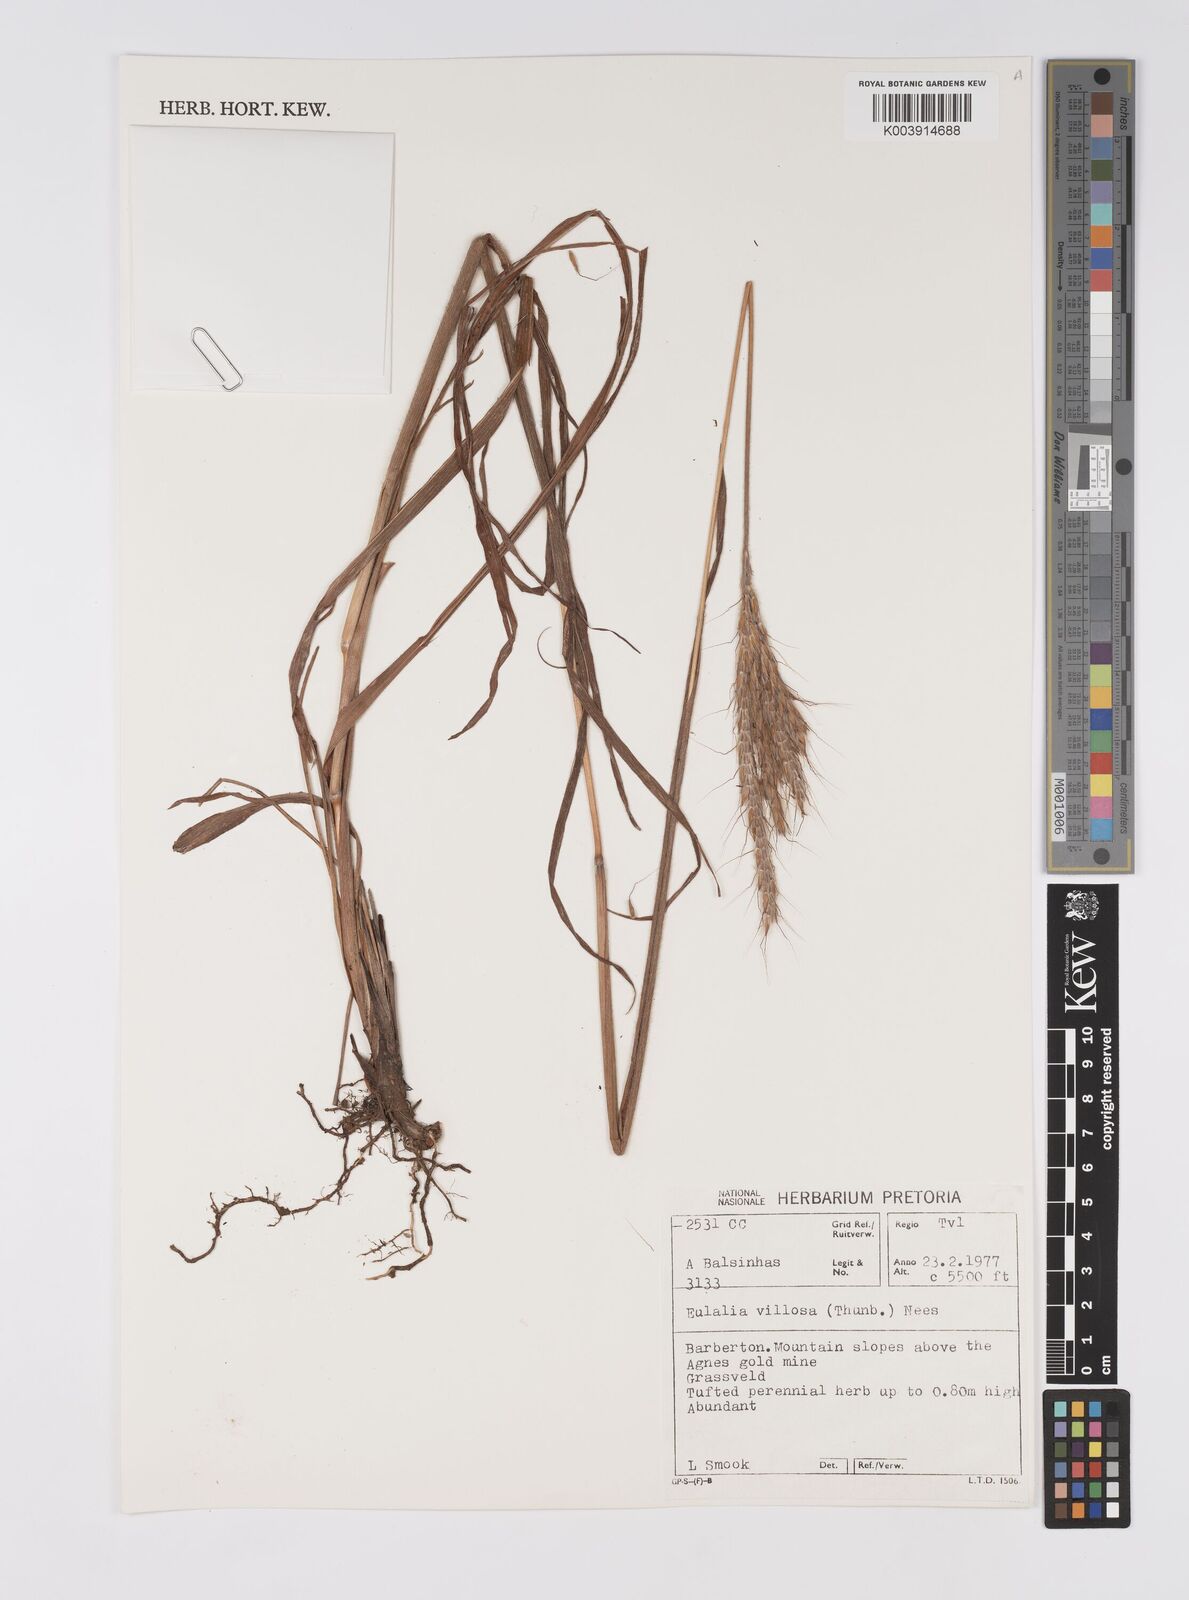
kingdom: Plantae
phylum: Tracheophyta
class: Liliopsida
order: Poales
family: Poaceae
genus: Eulalia
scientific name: Eulalia villosa
